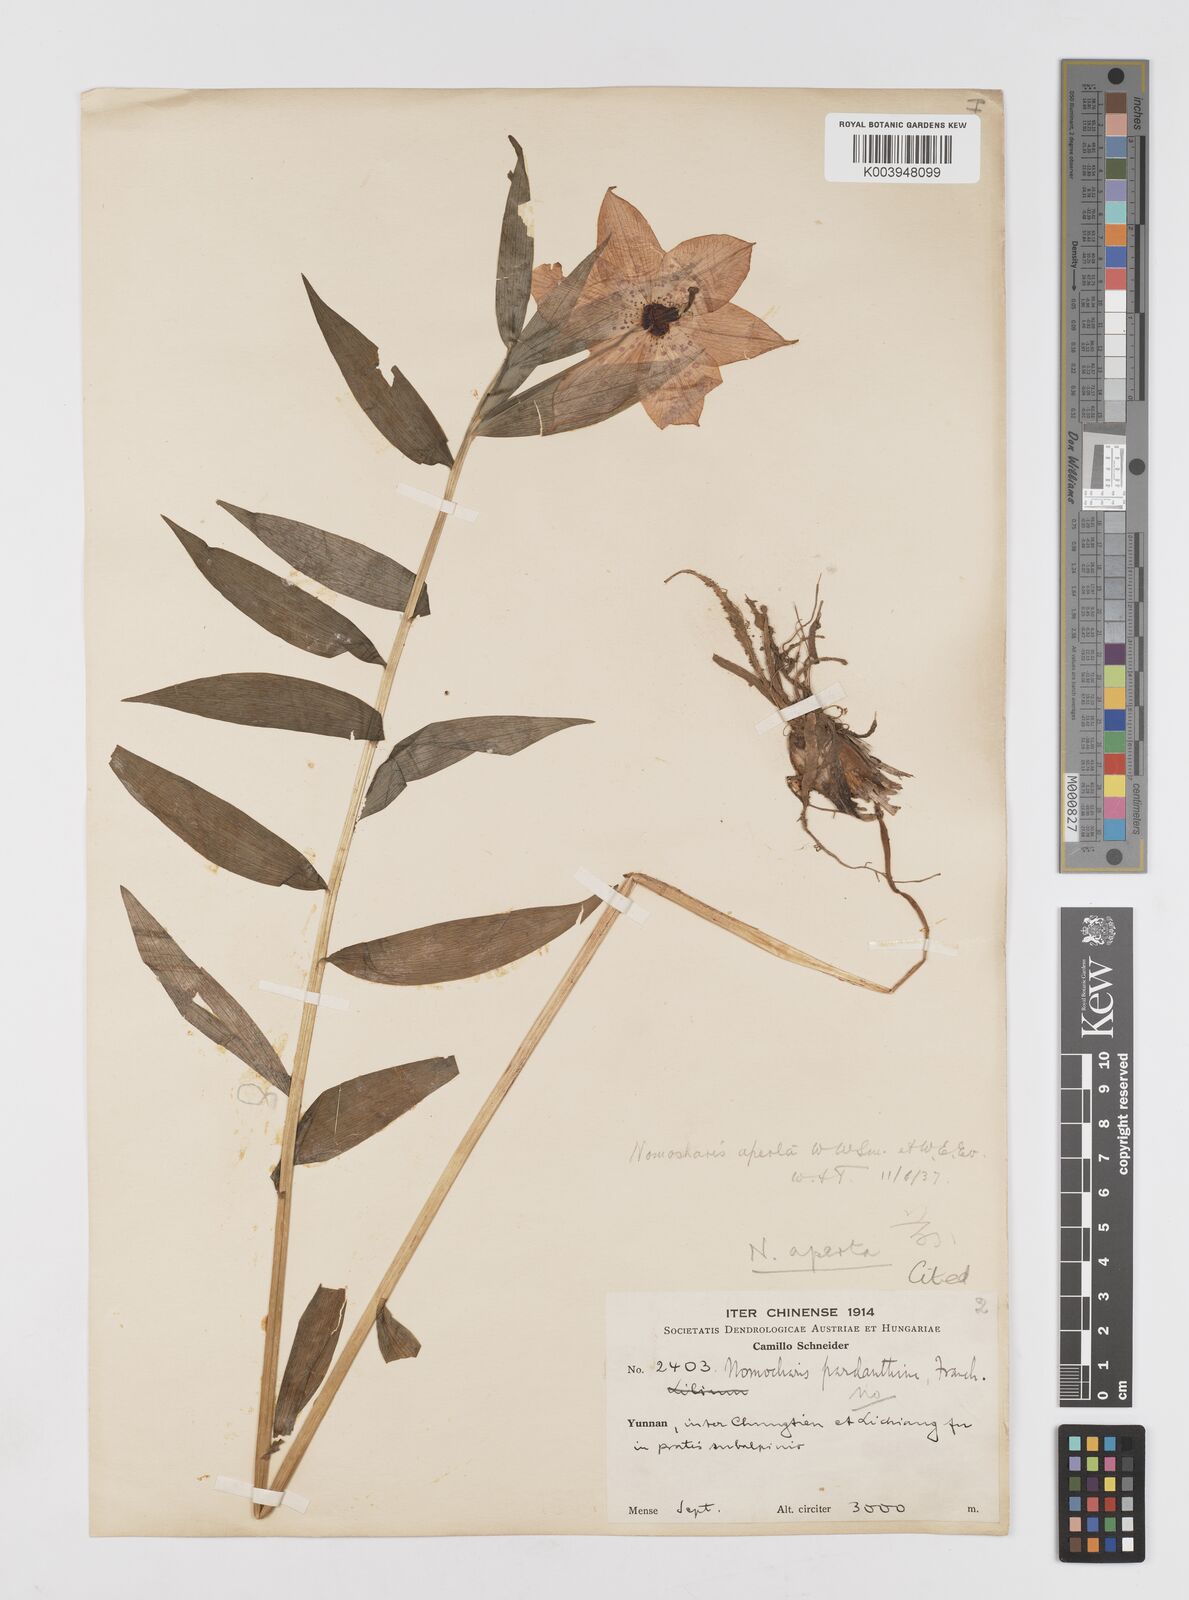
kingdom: Plantae
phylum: Tracheophyta
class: Liliopsida
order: Liliales
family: Liliaceae
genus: Lilium
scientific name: Lilium
